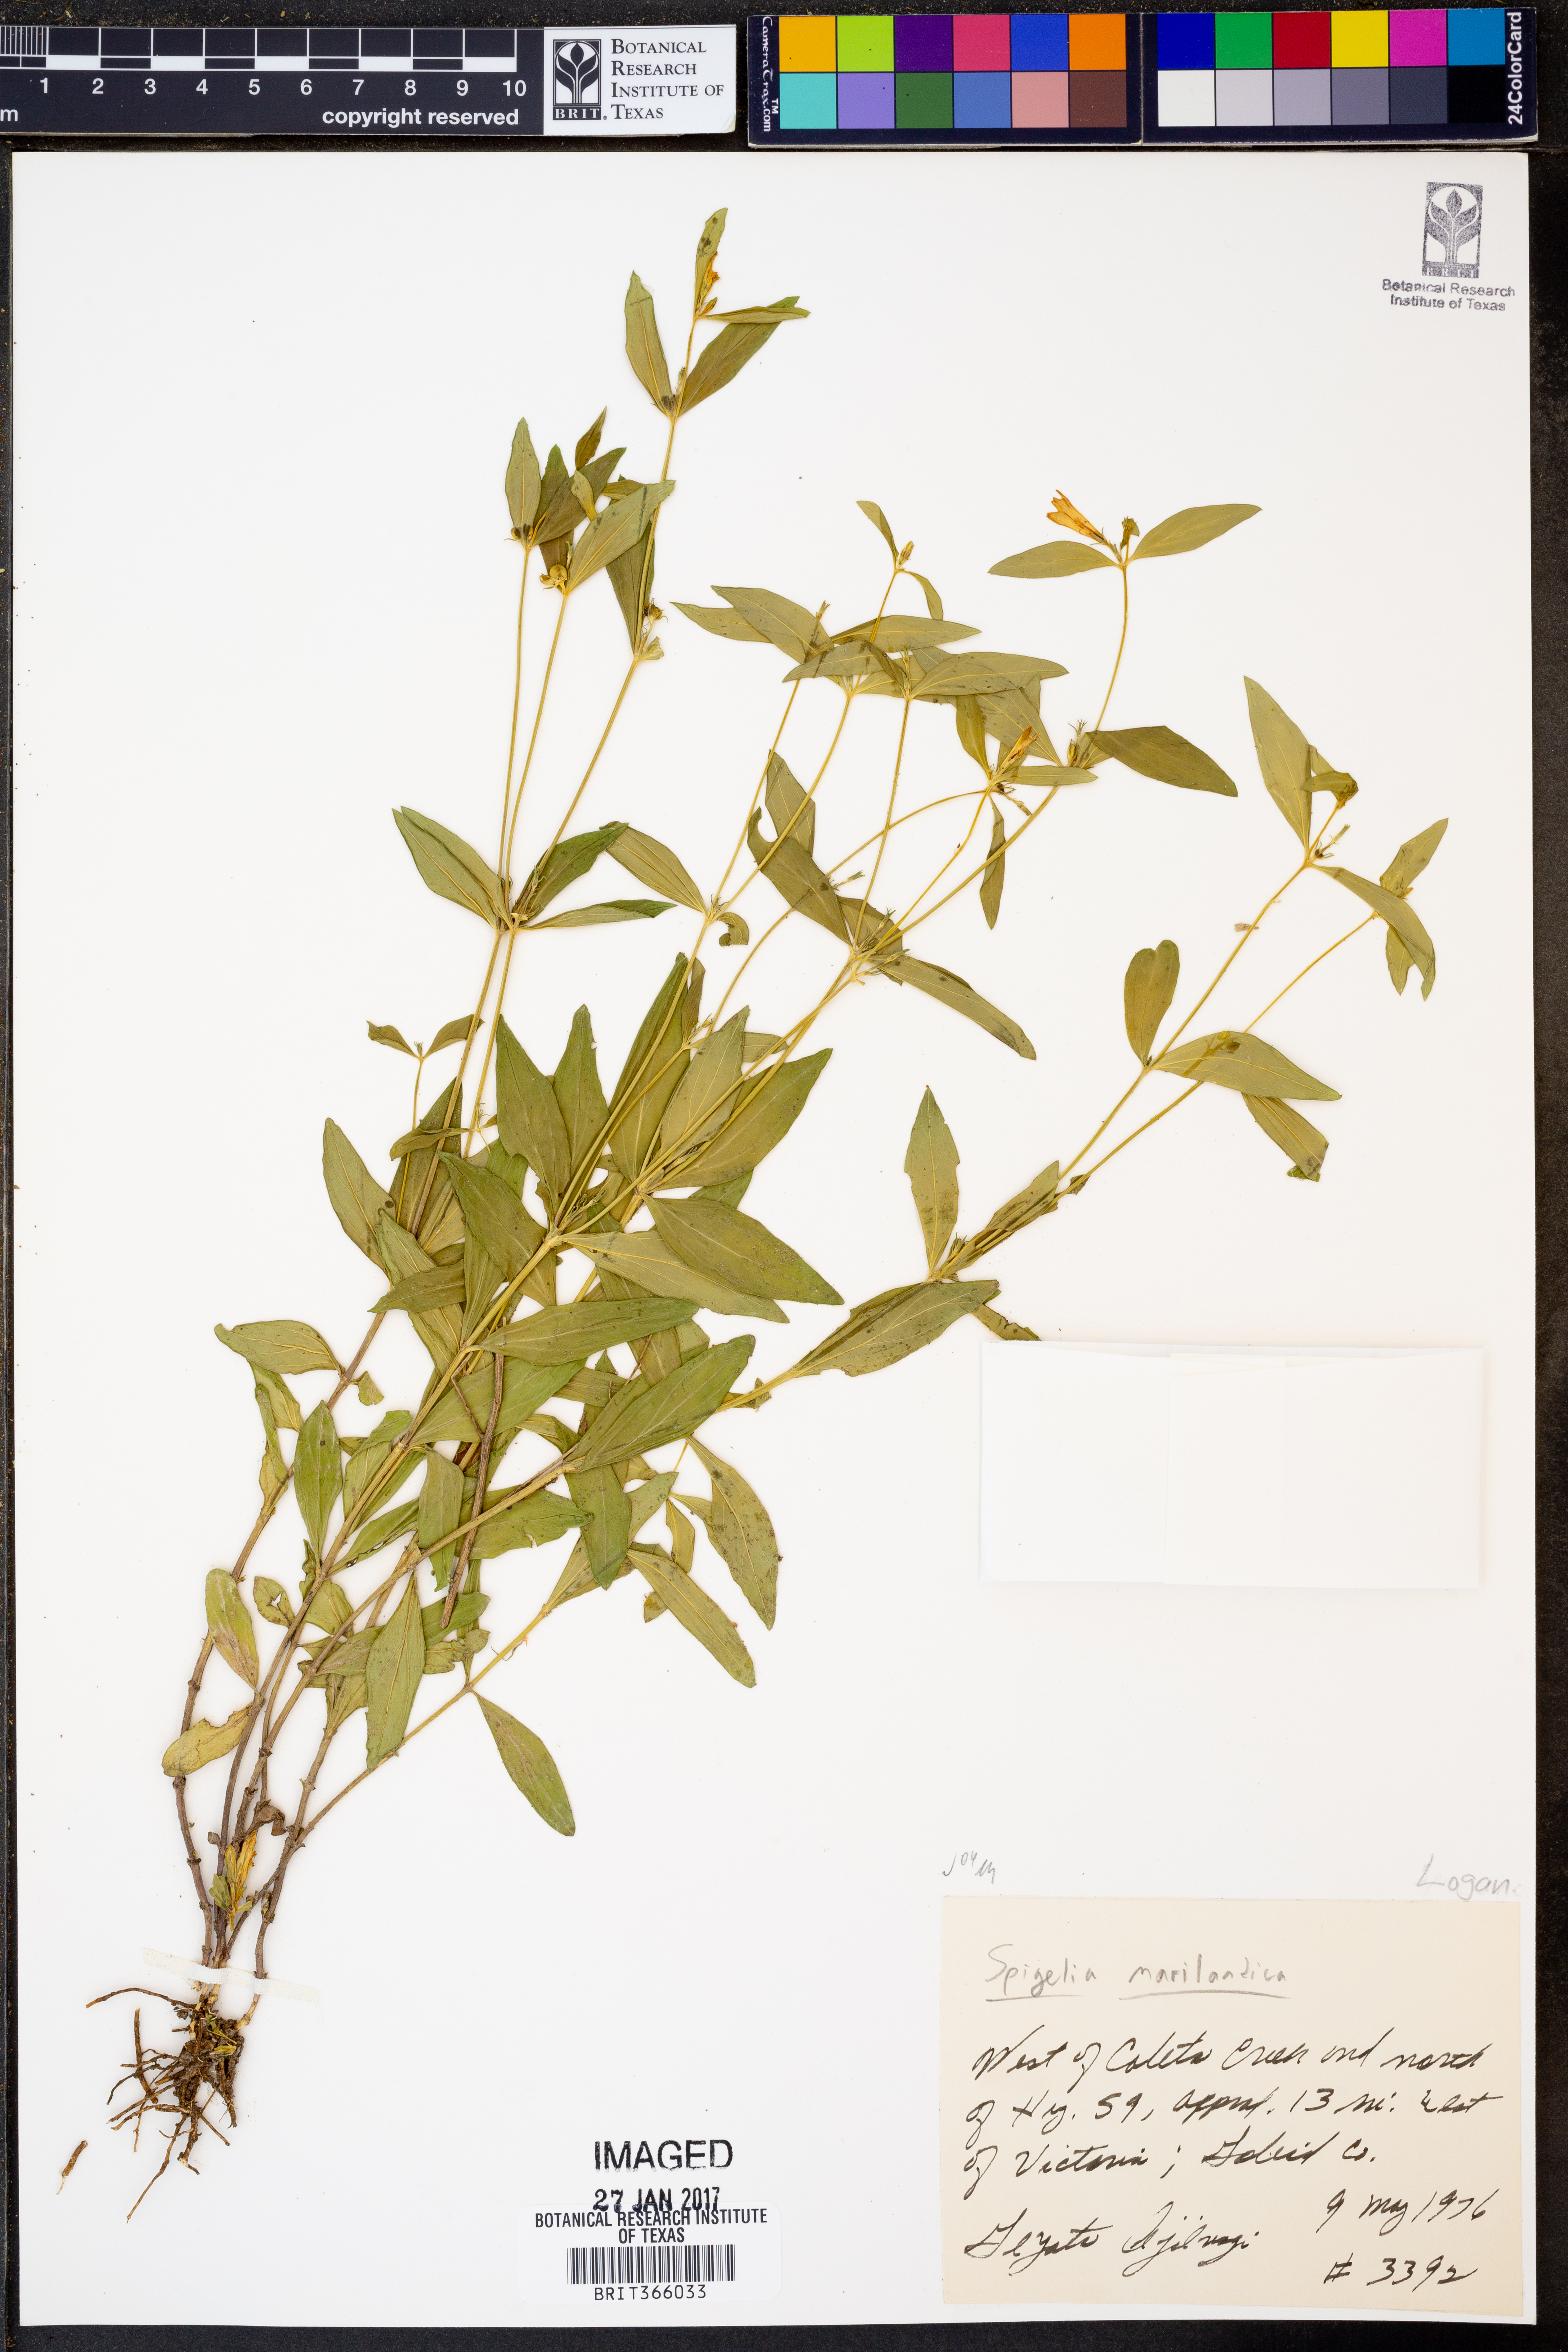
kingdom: Plantae
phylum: Tracheophyta
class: Magnoliopsida
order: Gentianales
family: Loganiaceae
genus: Spigelia
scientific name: Spigelia marilandica
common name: Indian-pink
